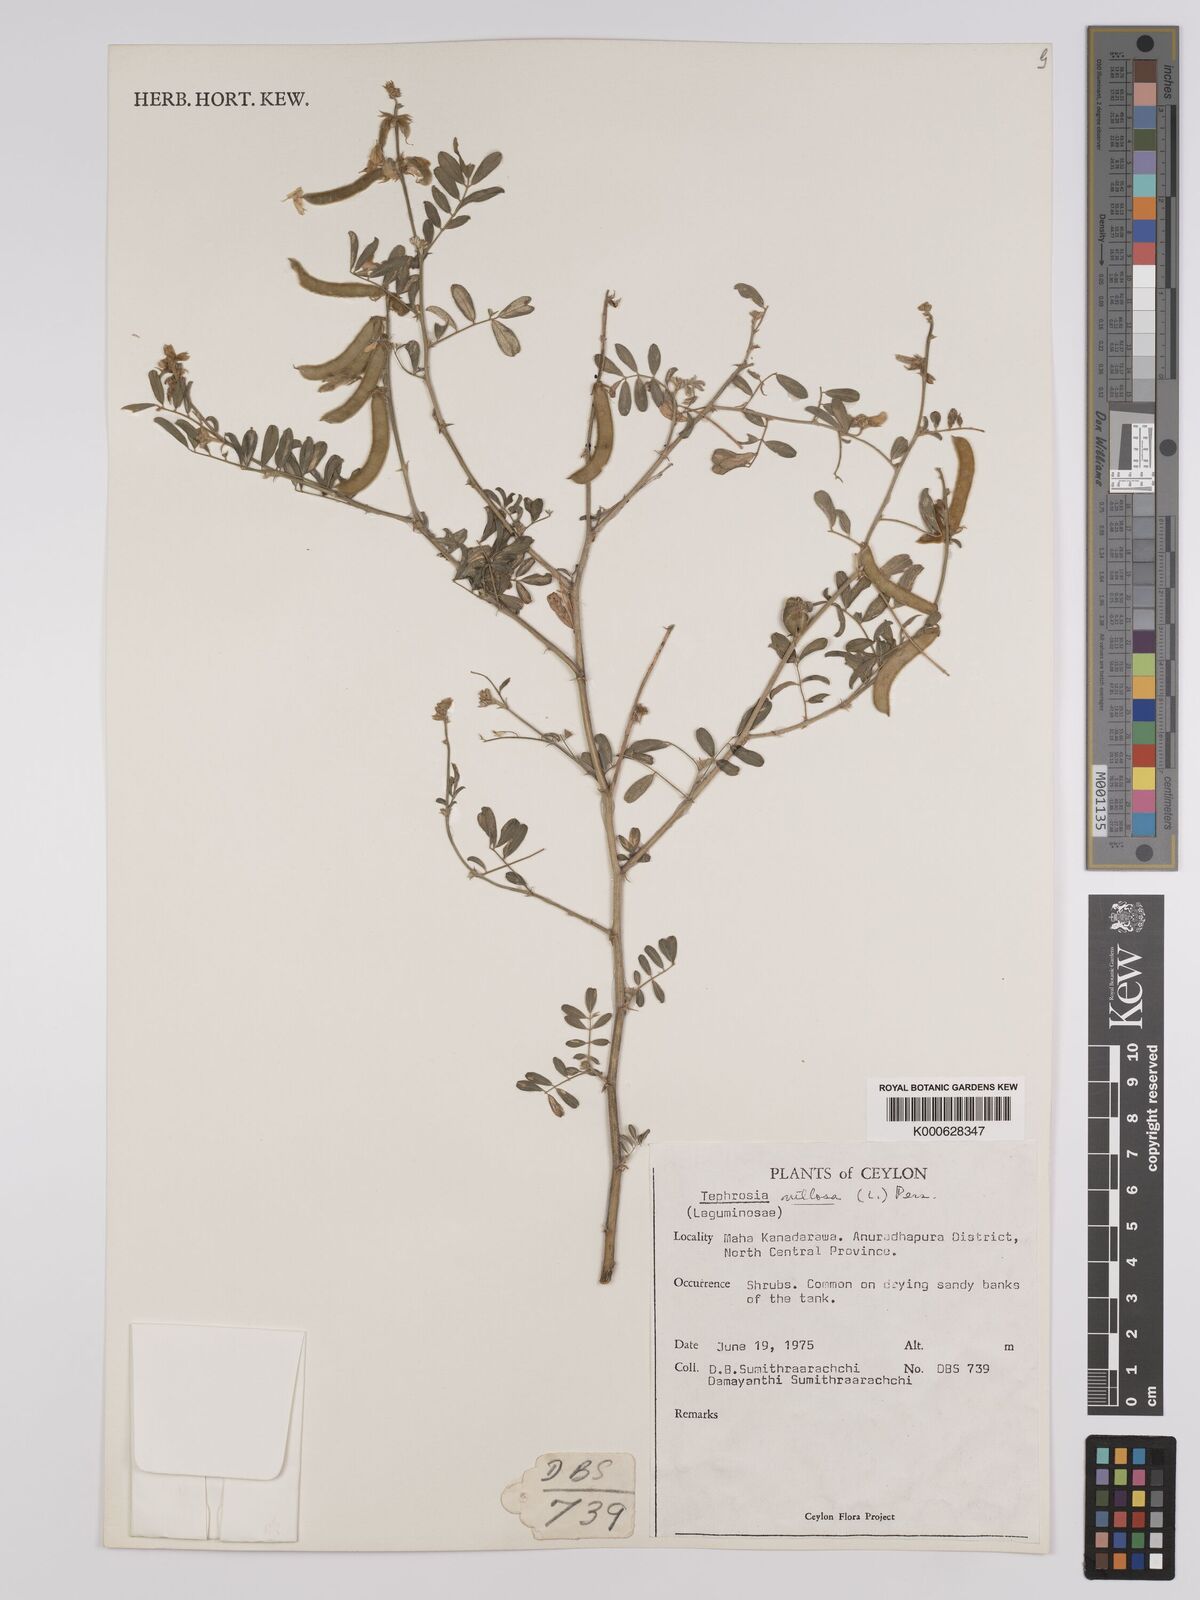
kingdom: Plantae
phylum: Tracheophyta
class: Magnoliopsida
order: Fabales
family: Fabaceae
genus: Tephrosia
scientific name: Tephrosia
